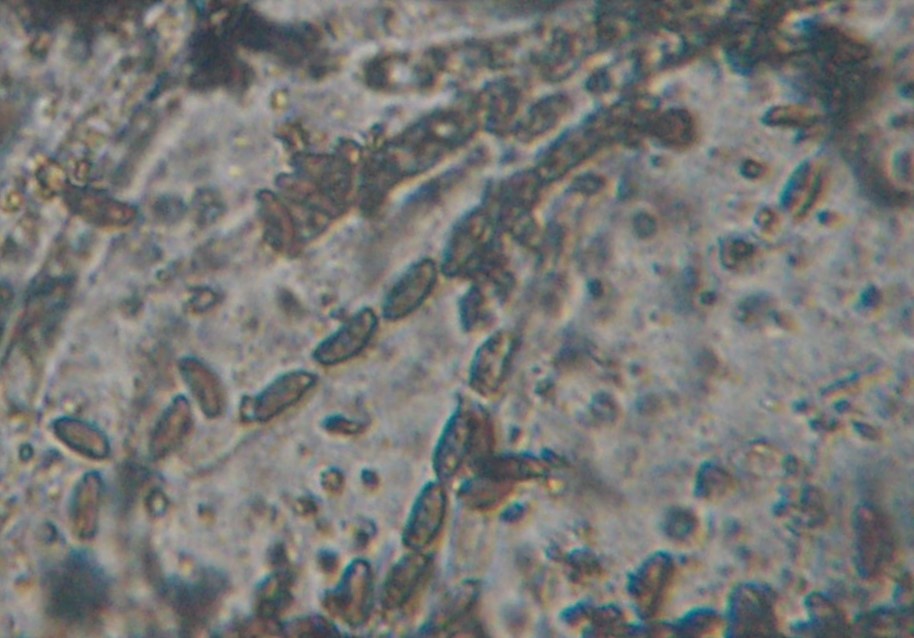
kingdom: Fungi
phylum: Ascomycota
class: Sordariomycetes
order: Xylariales
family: Hypoxylaceae
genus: Jackrogersella
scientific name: Jackrogersella cohaerens
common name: sammenflydende kulbær
